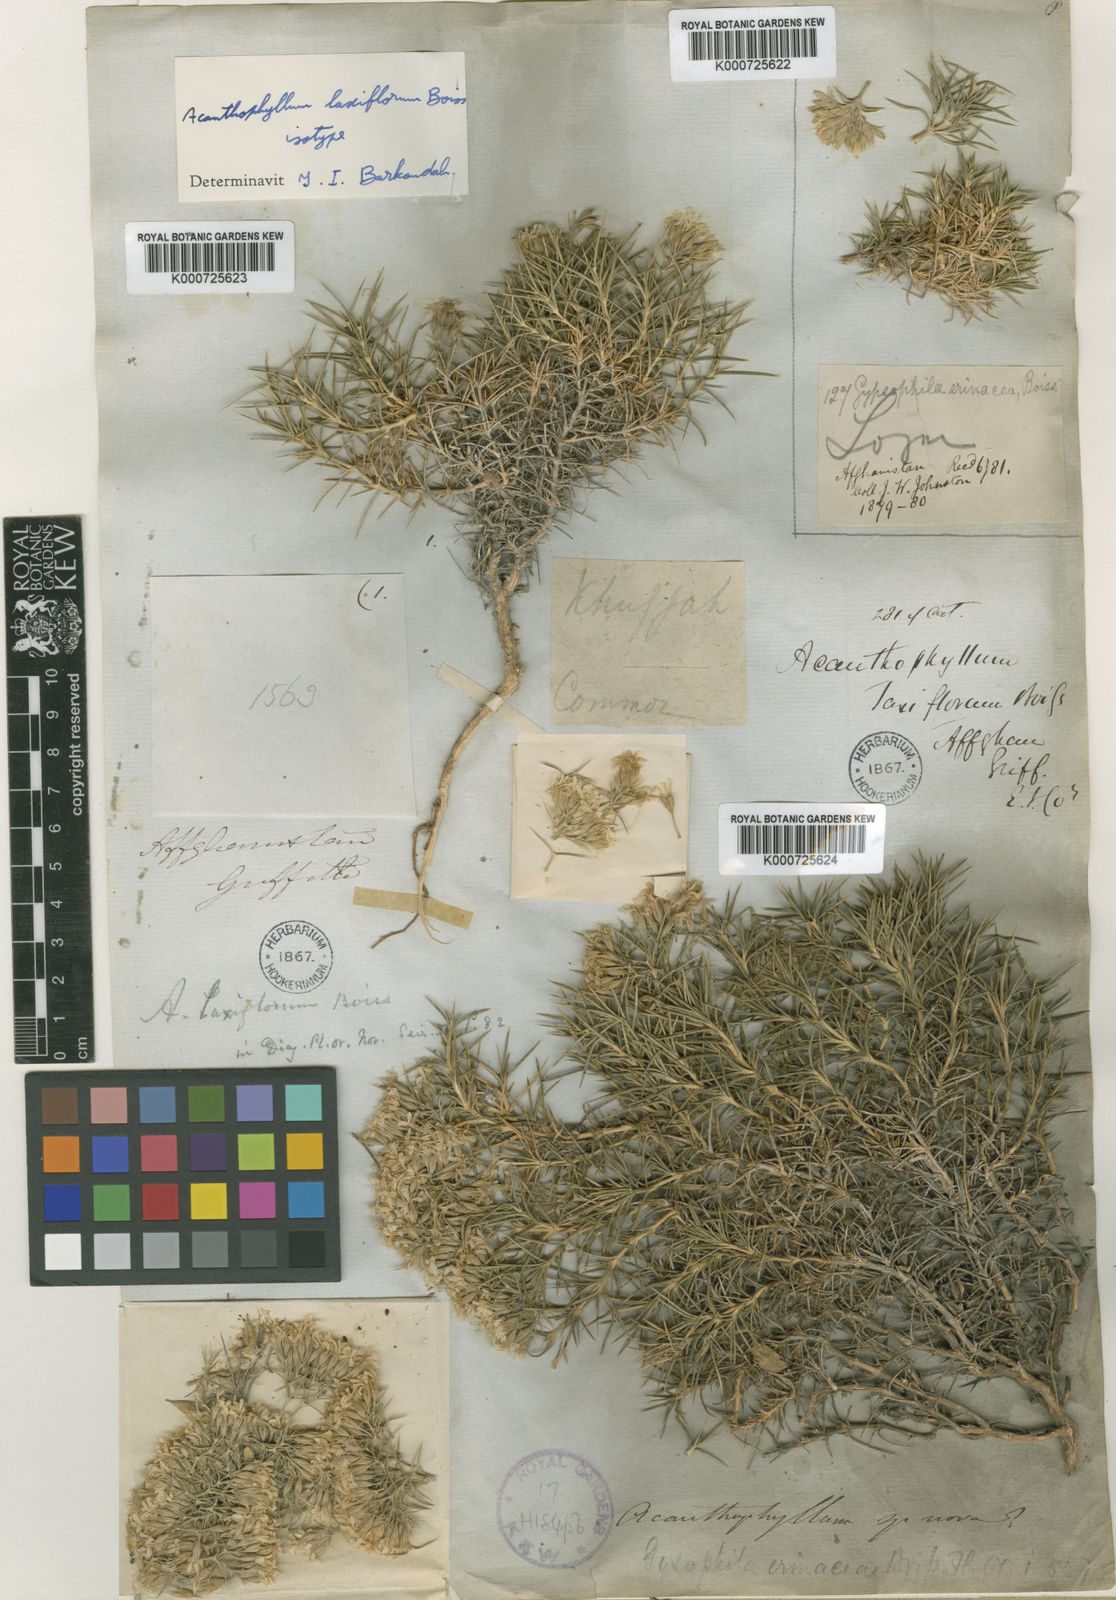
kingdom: Plantae
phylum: Tracheophyta
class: Magnoliopsida
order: Caryophyllales
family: Caryophyllaceae
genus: Acanthophyllum
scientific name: Acanthophyllum laxiflorum
